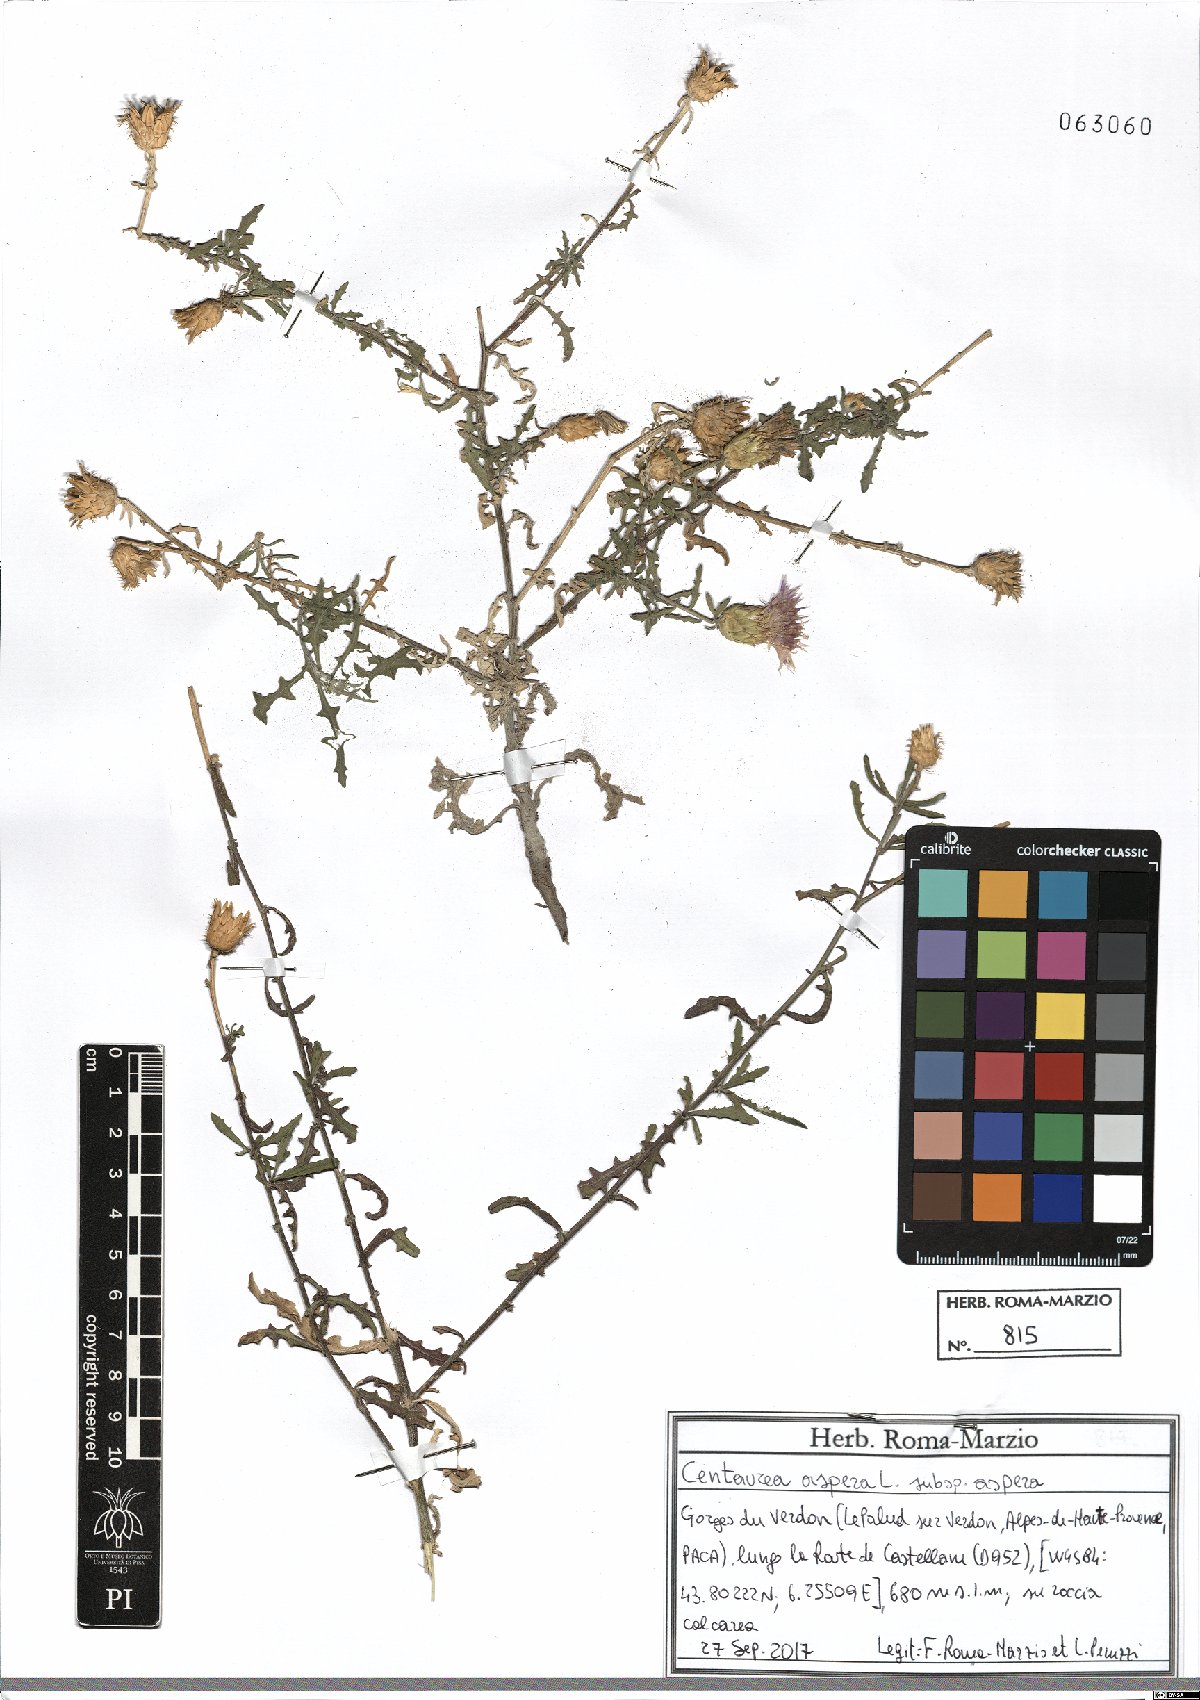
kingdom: Plantae
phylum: Tracheophyta
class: Magnoliopsida
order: Asterales
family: Asteraceae
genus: Centaurea
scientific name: Centaurea aspera
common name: Rough star-thistle
